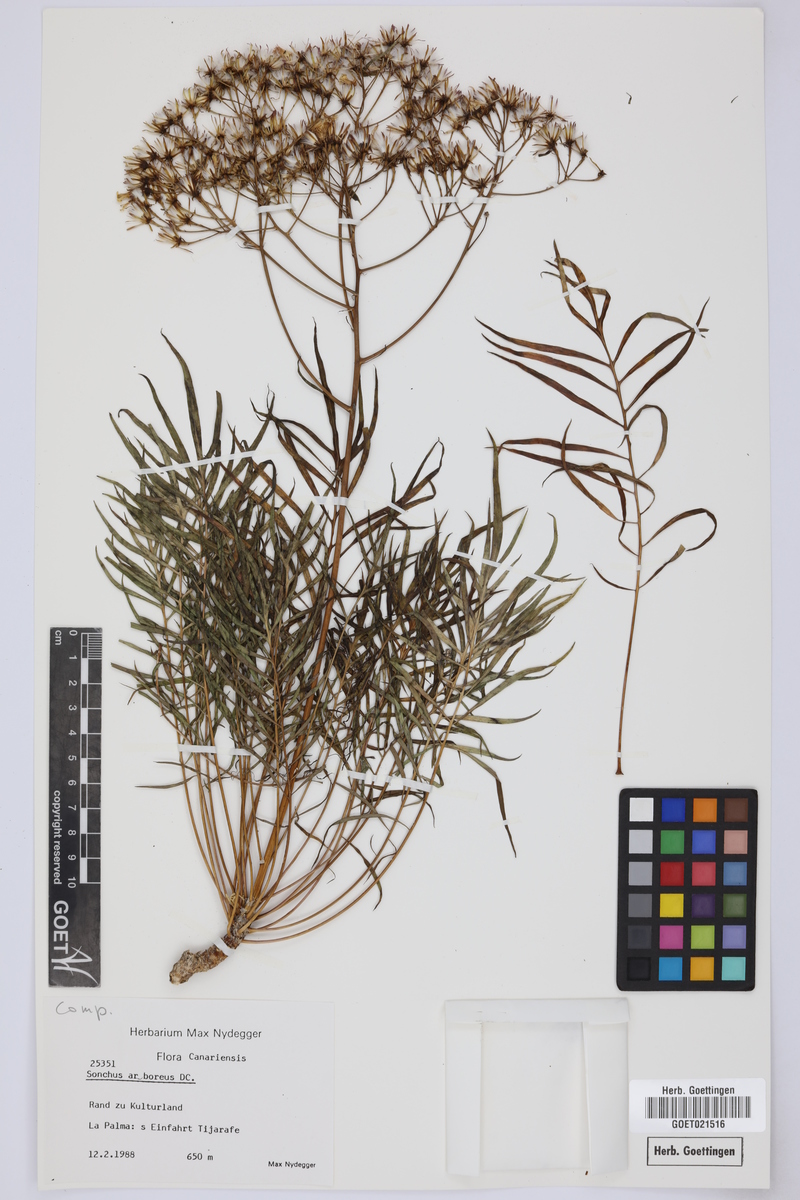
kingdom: Plantae
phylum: Tracheophyta
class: Magnoliopsida
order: Asterales
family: Asteraceae
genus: Sonchus
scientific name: Sonchus arboreus
